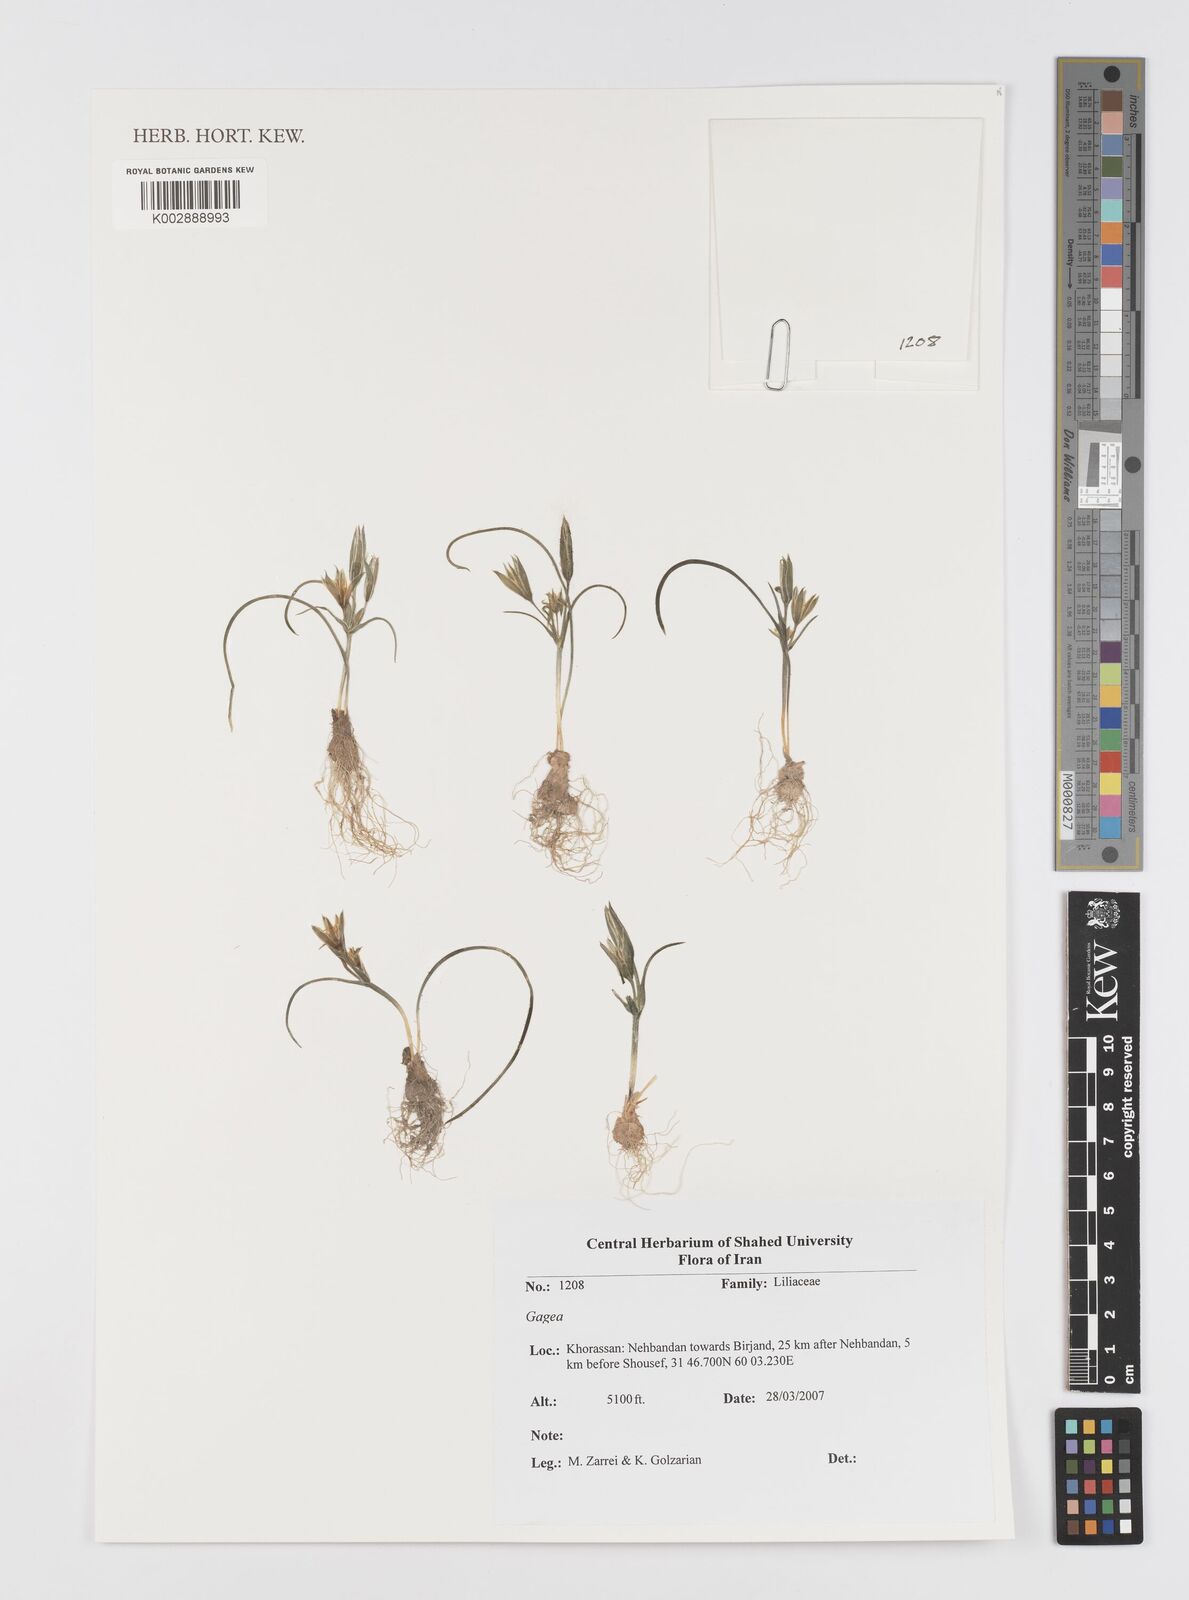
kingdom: Plantae
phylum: Tracheophyta
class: Liliopsida
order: Liliales
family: Liliaceae
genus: Gagea
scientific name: Gagea
